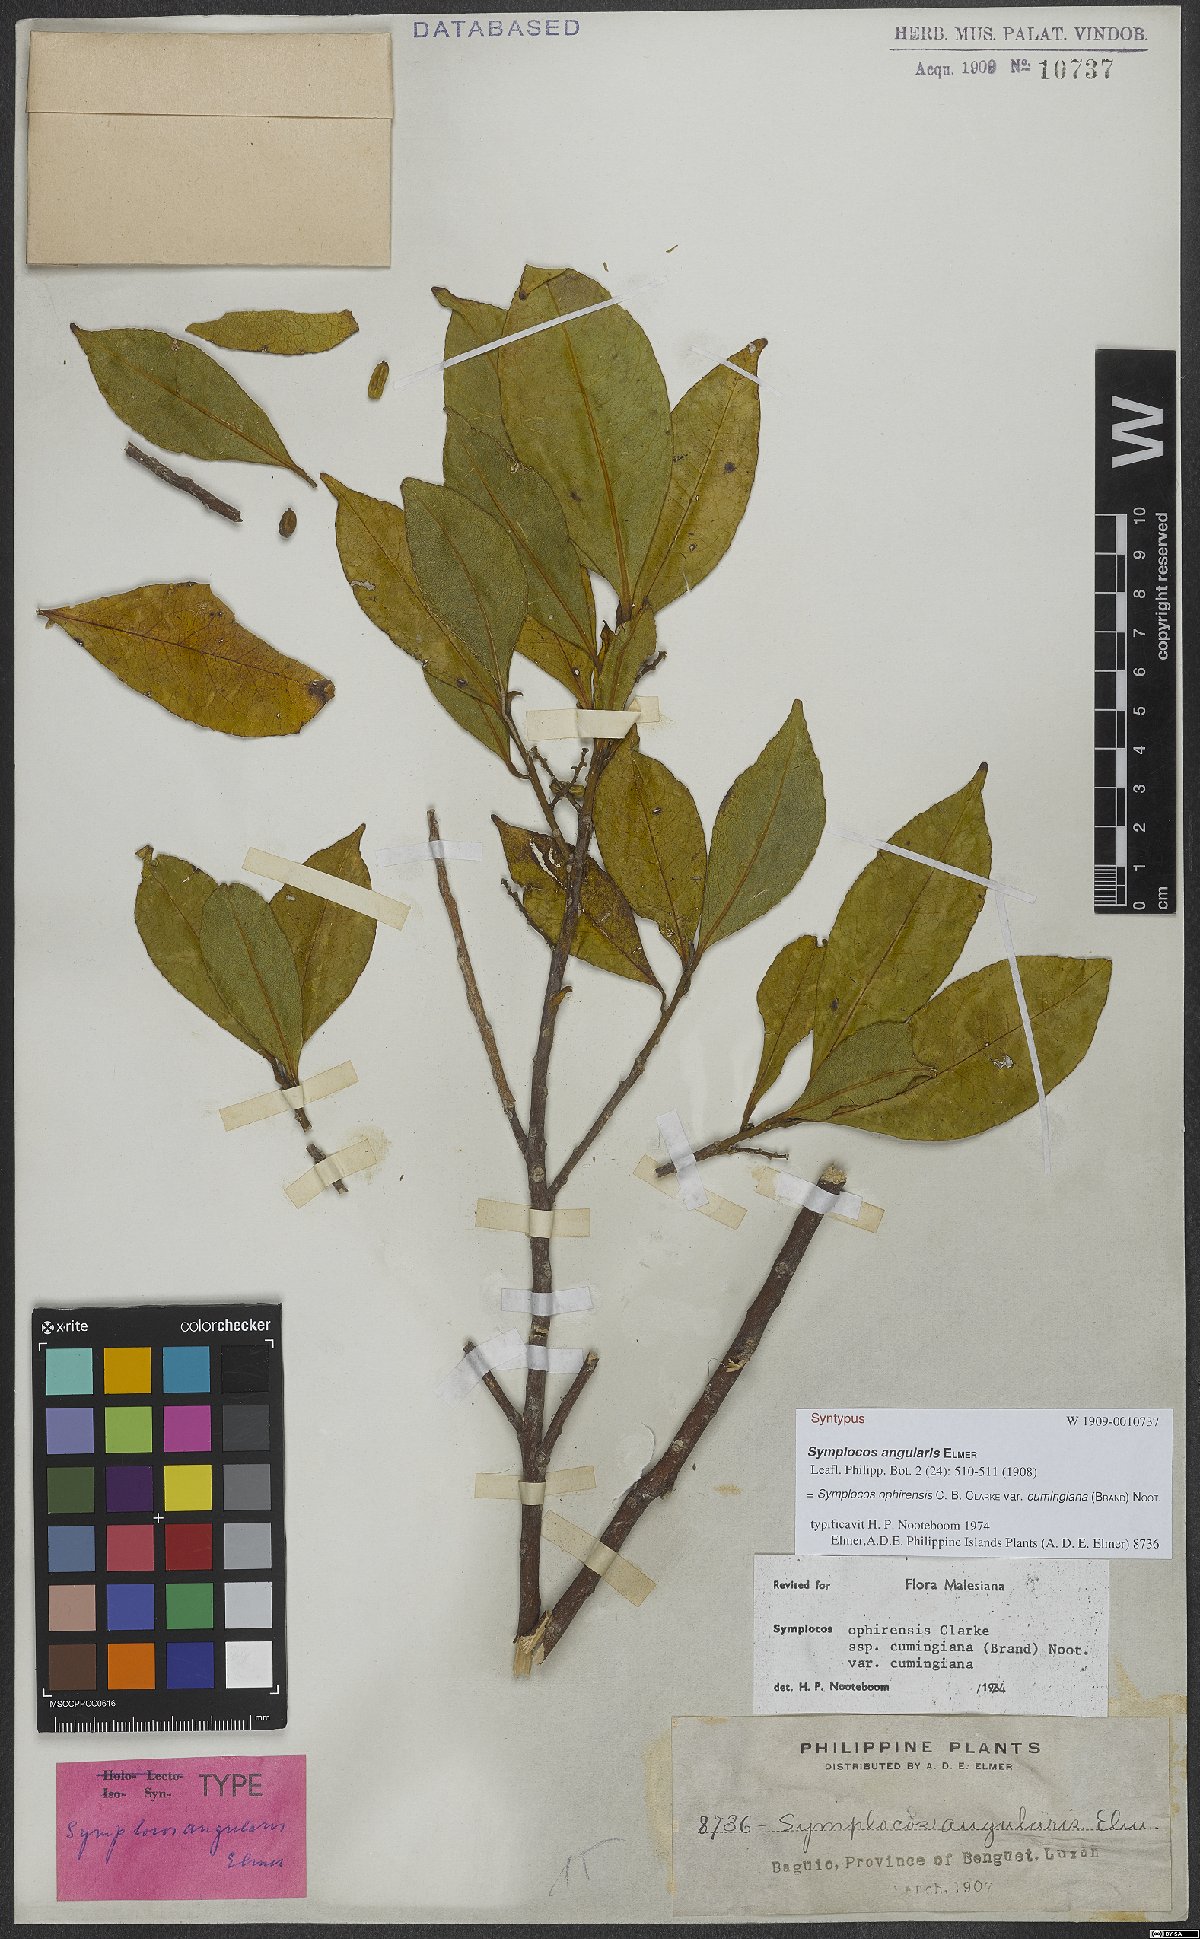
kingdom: Plantae
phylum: Tracheophyta
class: Magnoliopsida
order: Ericales
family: Symplocaceae
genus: Symplocos
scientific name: Symplocos ophirensis
